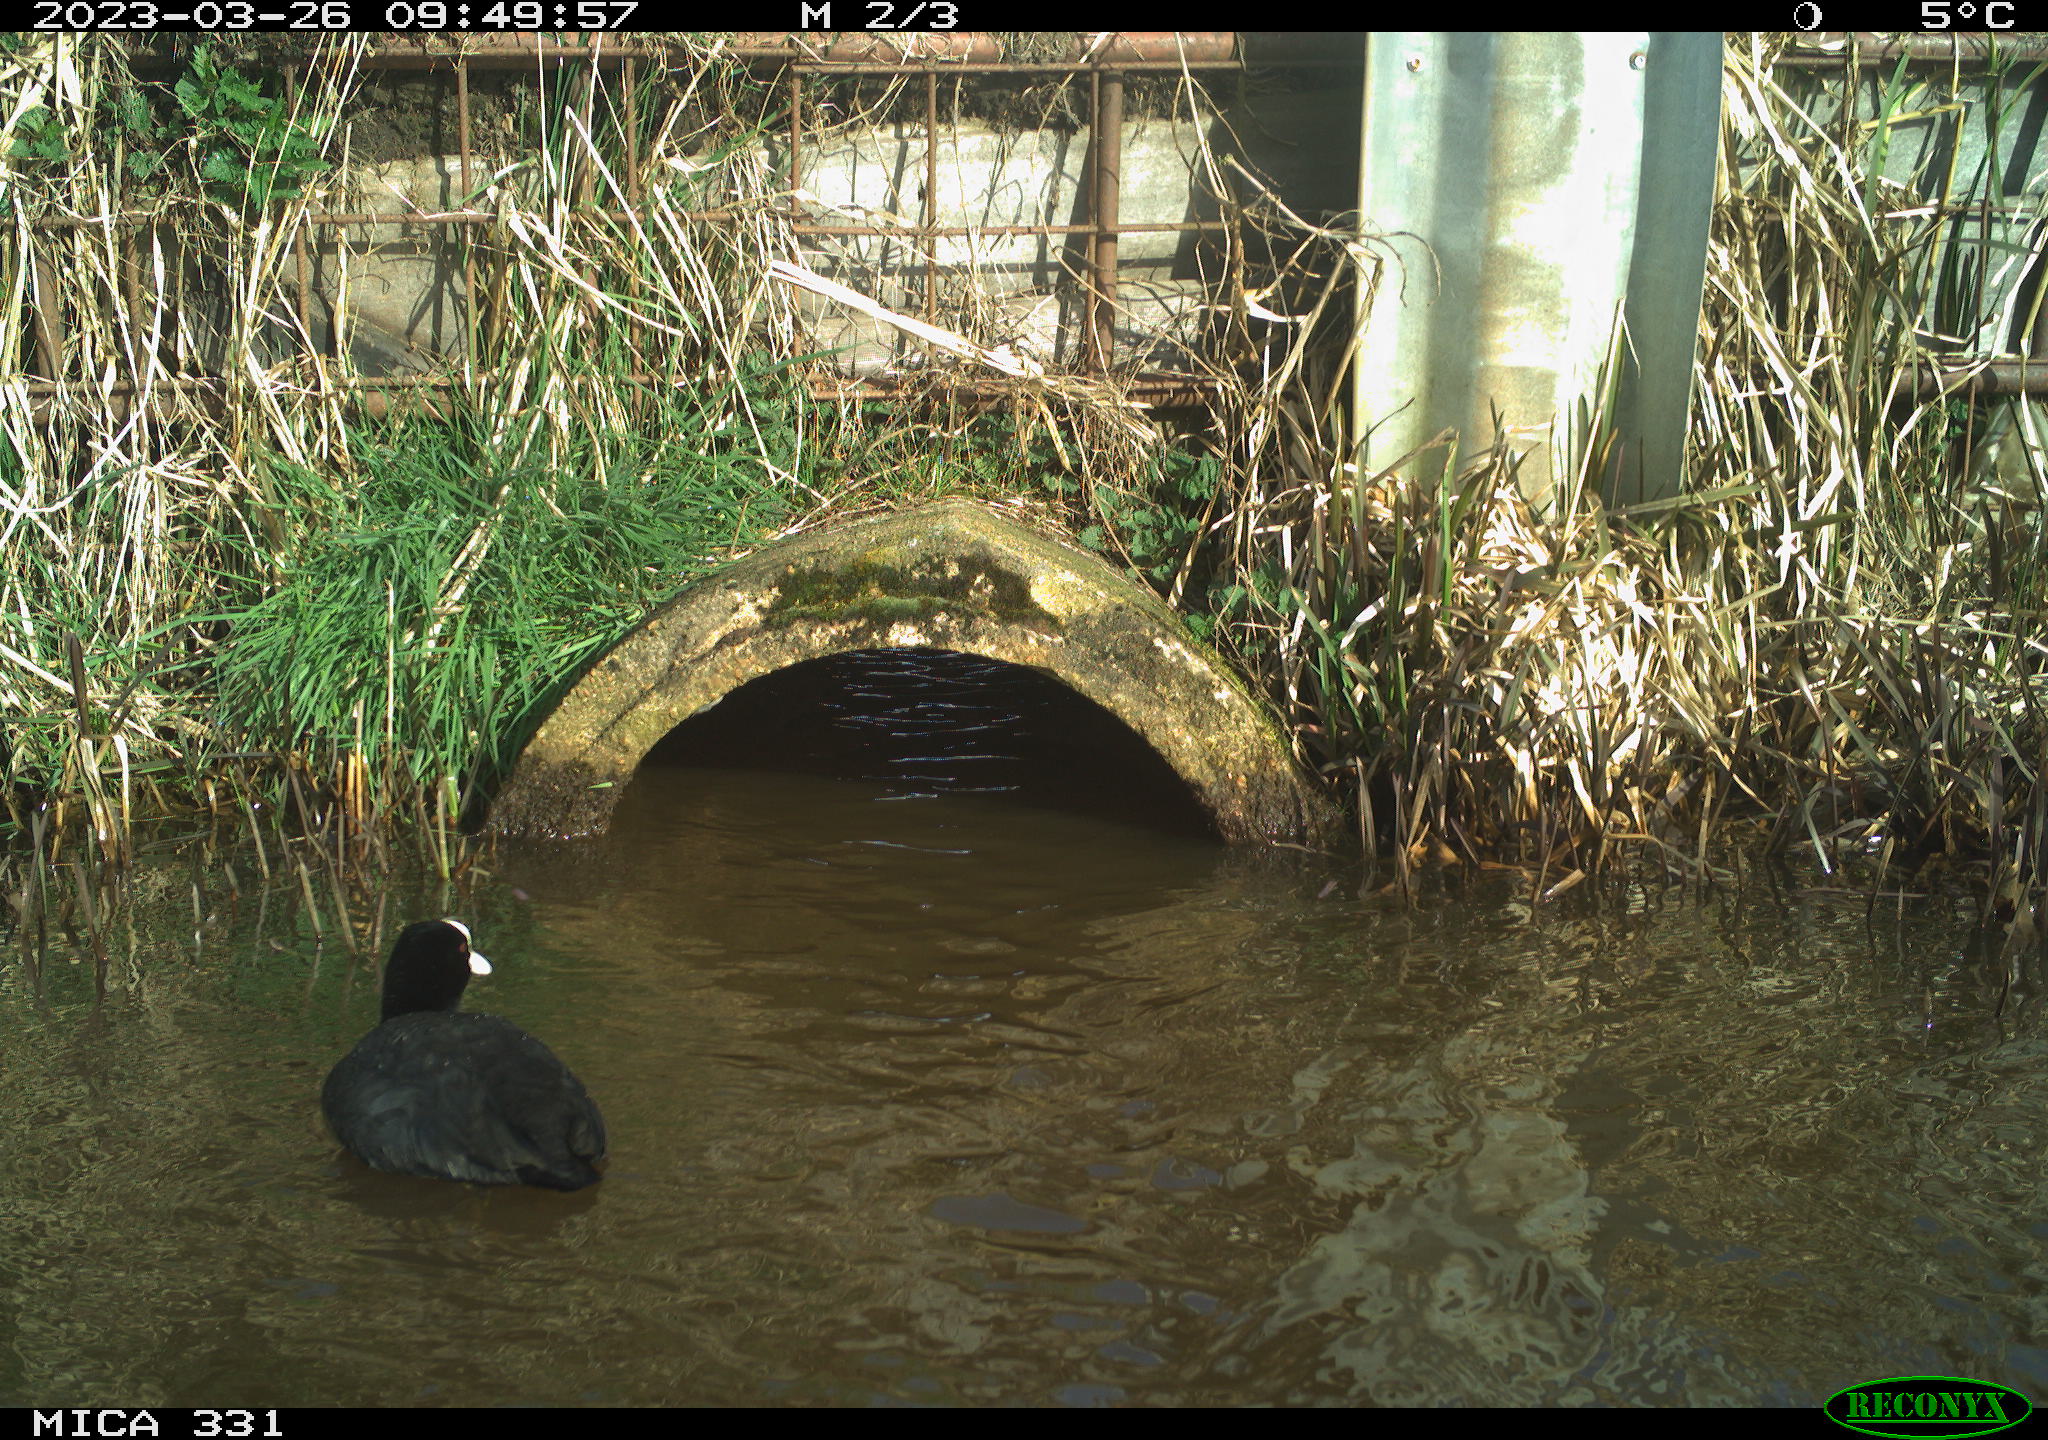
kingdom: Animalia
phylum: Chordata
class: Aves
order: Gruiformes
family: Rallidae
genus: Fulica
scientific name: Fulica atra
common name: Eurasian coot
